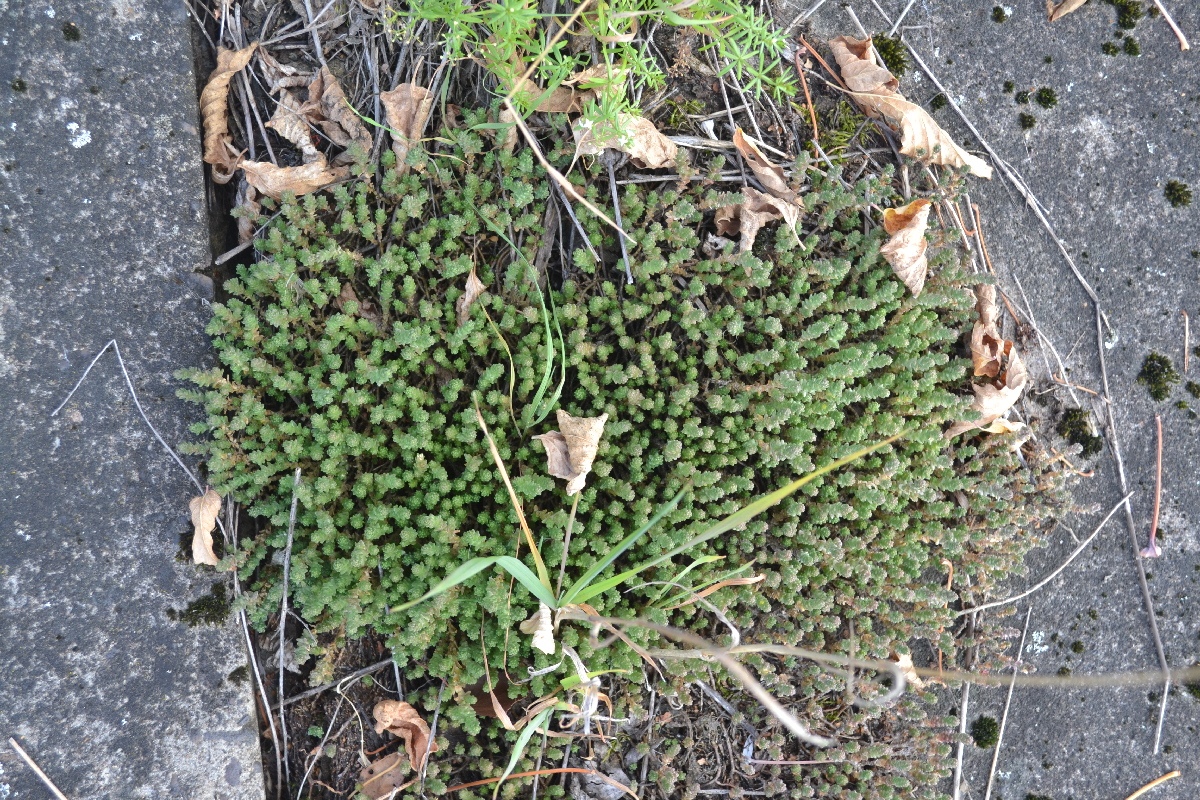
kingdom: Plantae
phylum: Tracheophyta
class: Magnoliopsida
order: Saxifragales
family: Crassulaceae
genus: Sedum
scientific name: Sedum acre
